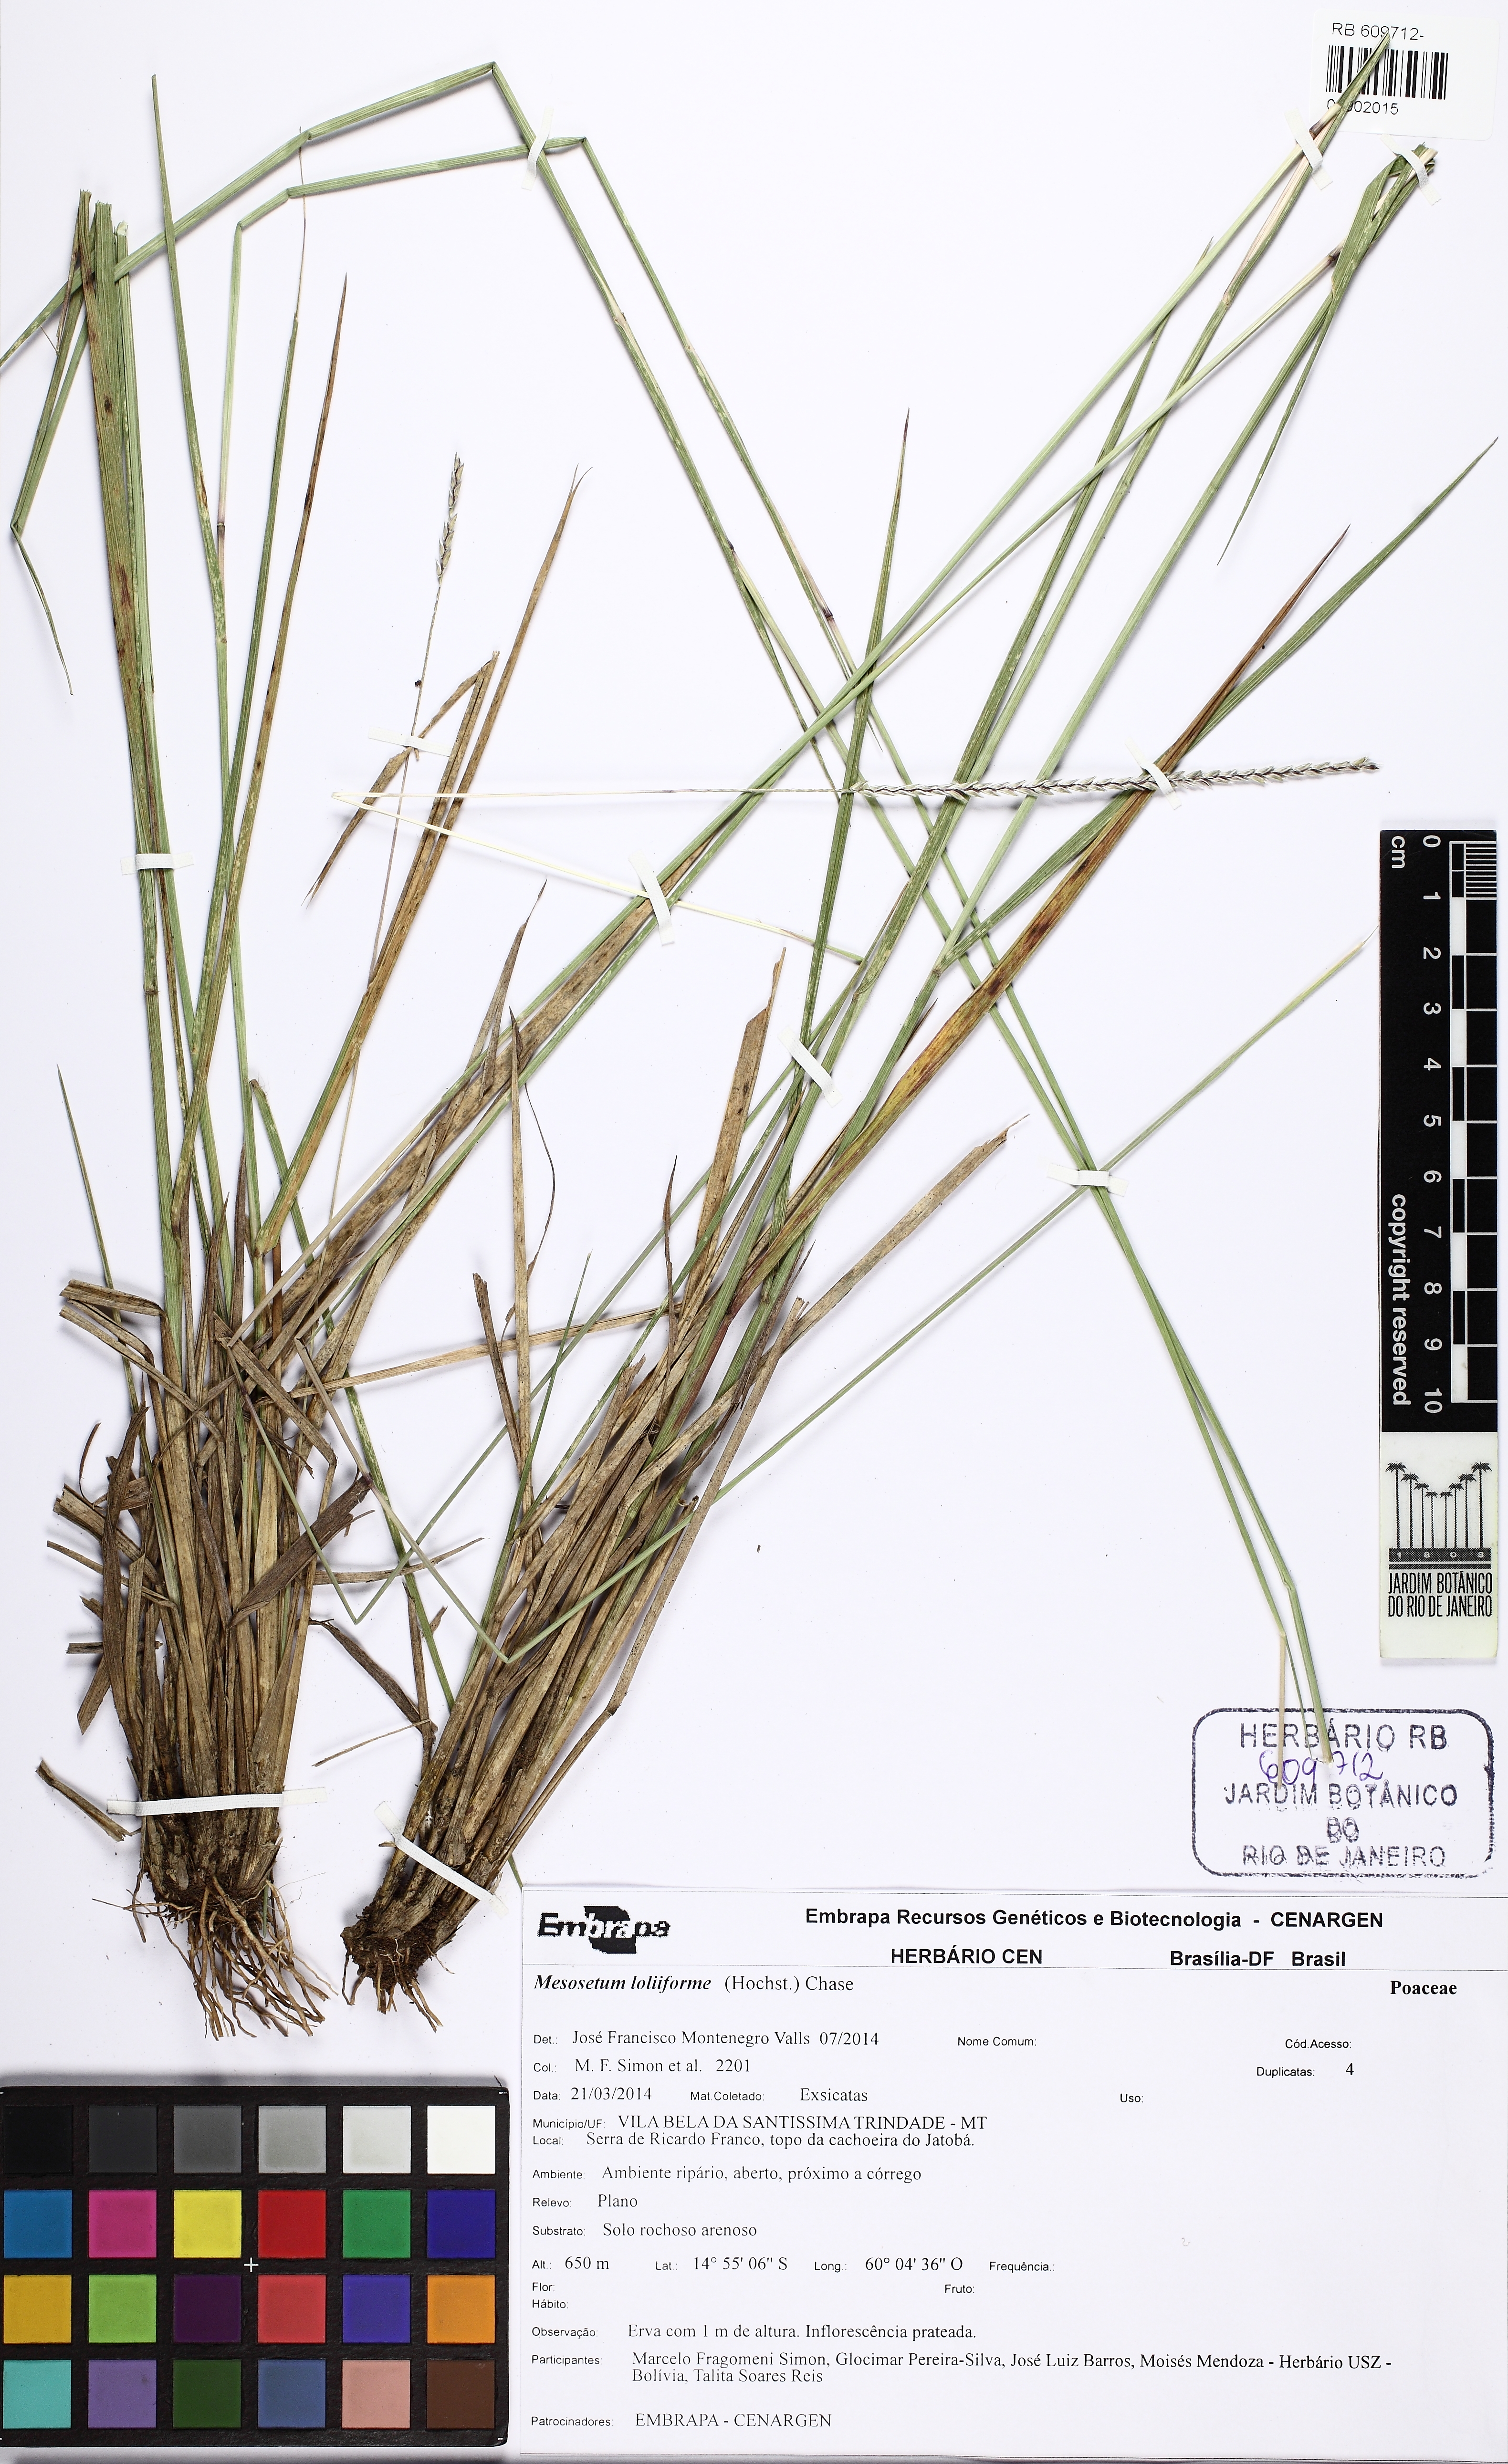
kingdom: Plantae
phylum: Tracheophyta
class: Liliopsida
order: Poales
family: Poaceae
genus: Mesosetum
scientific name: Mesosetum loliiforme
